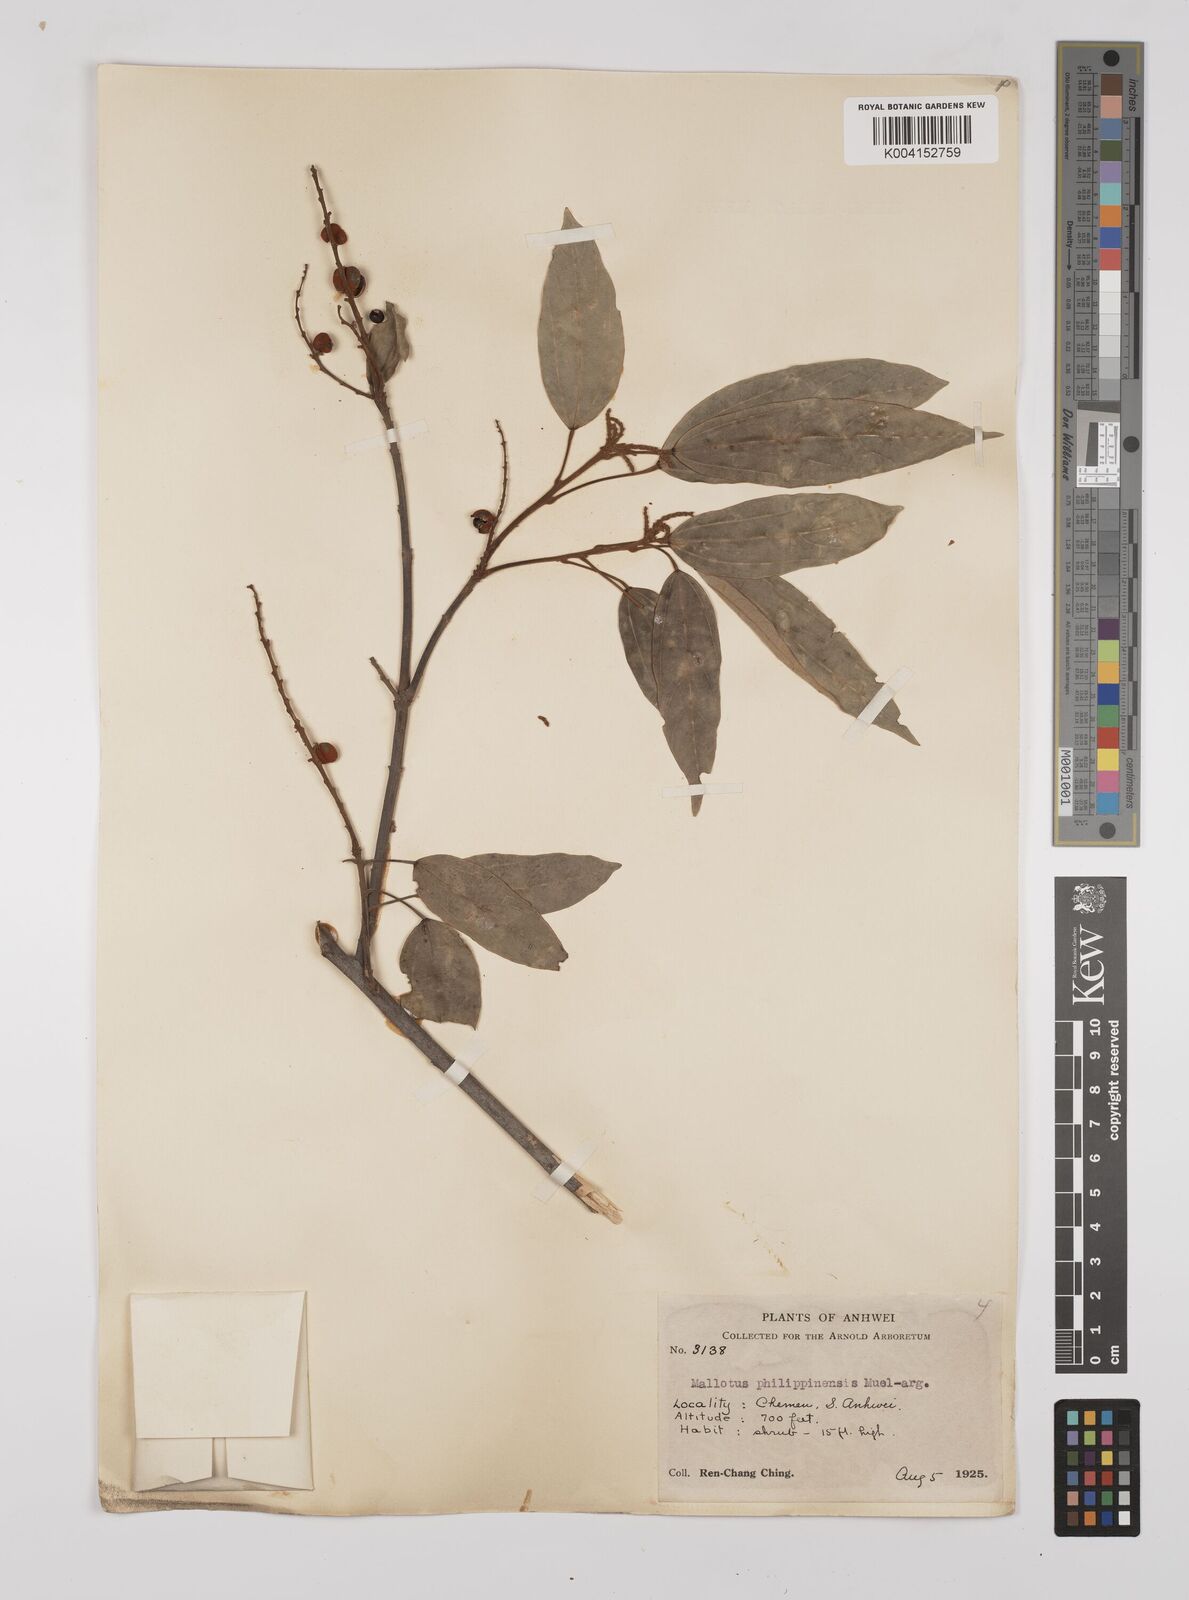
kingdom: Plantae
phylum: Tracheophyta
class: Magnoliopsida
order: Malpighiales
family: Euphorbiaceae
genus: Mallotus
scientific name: Mallotus philippensis
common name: Kamala tree
